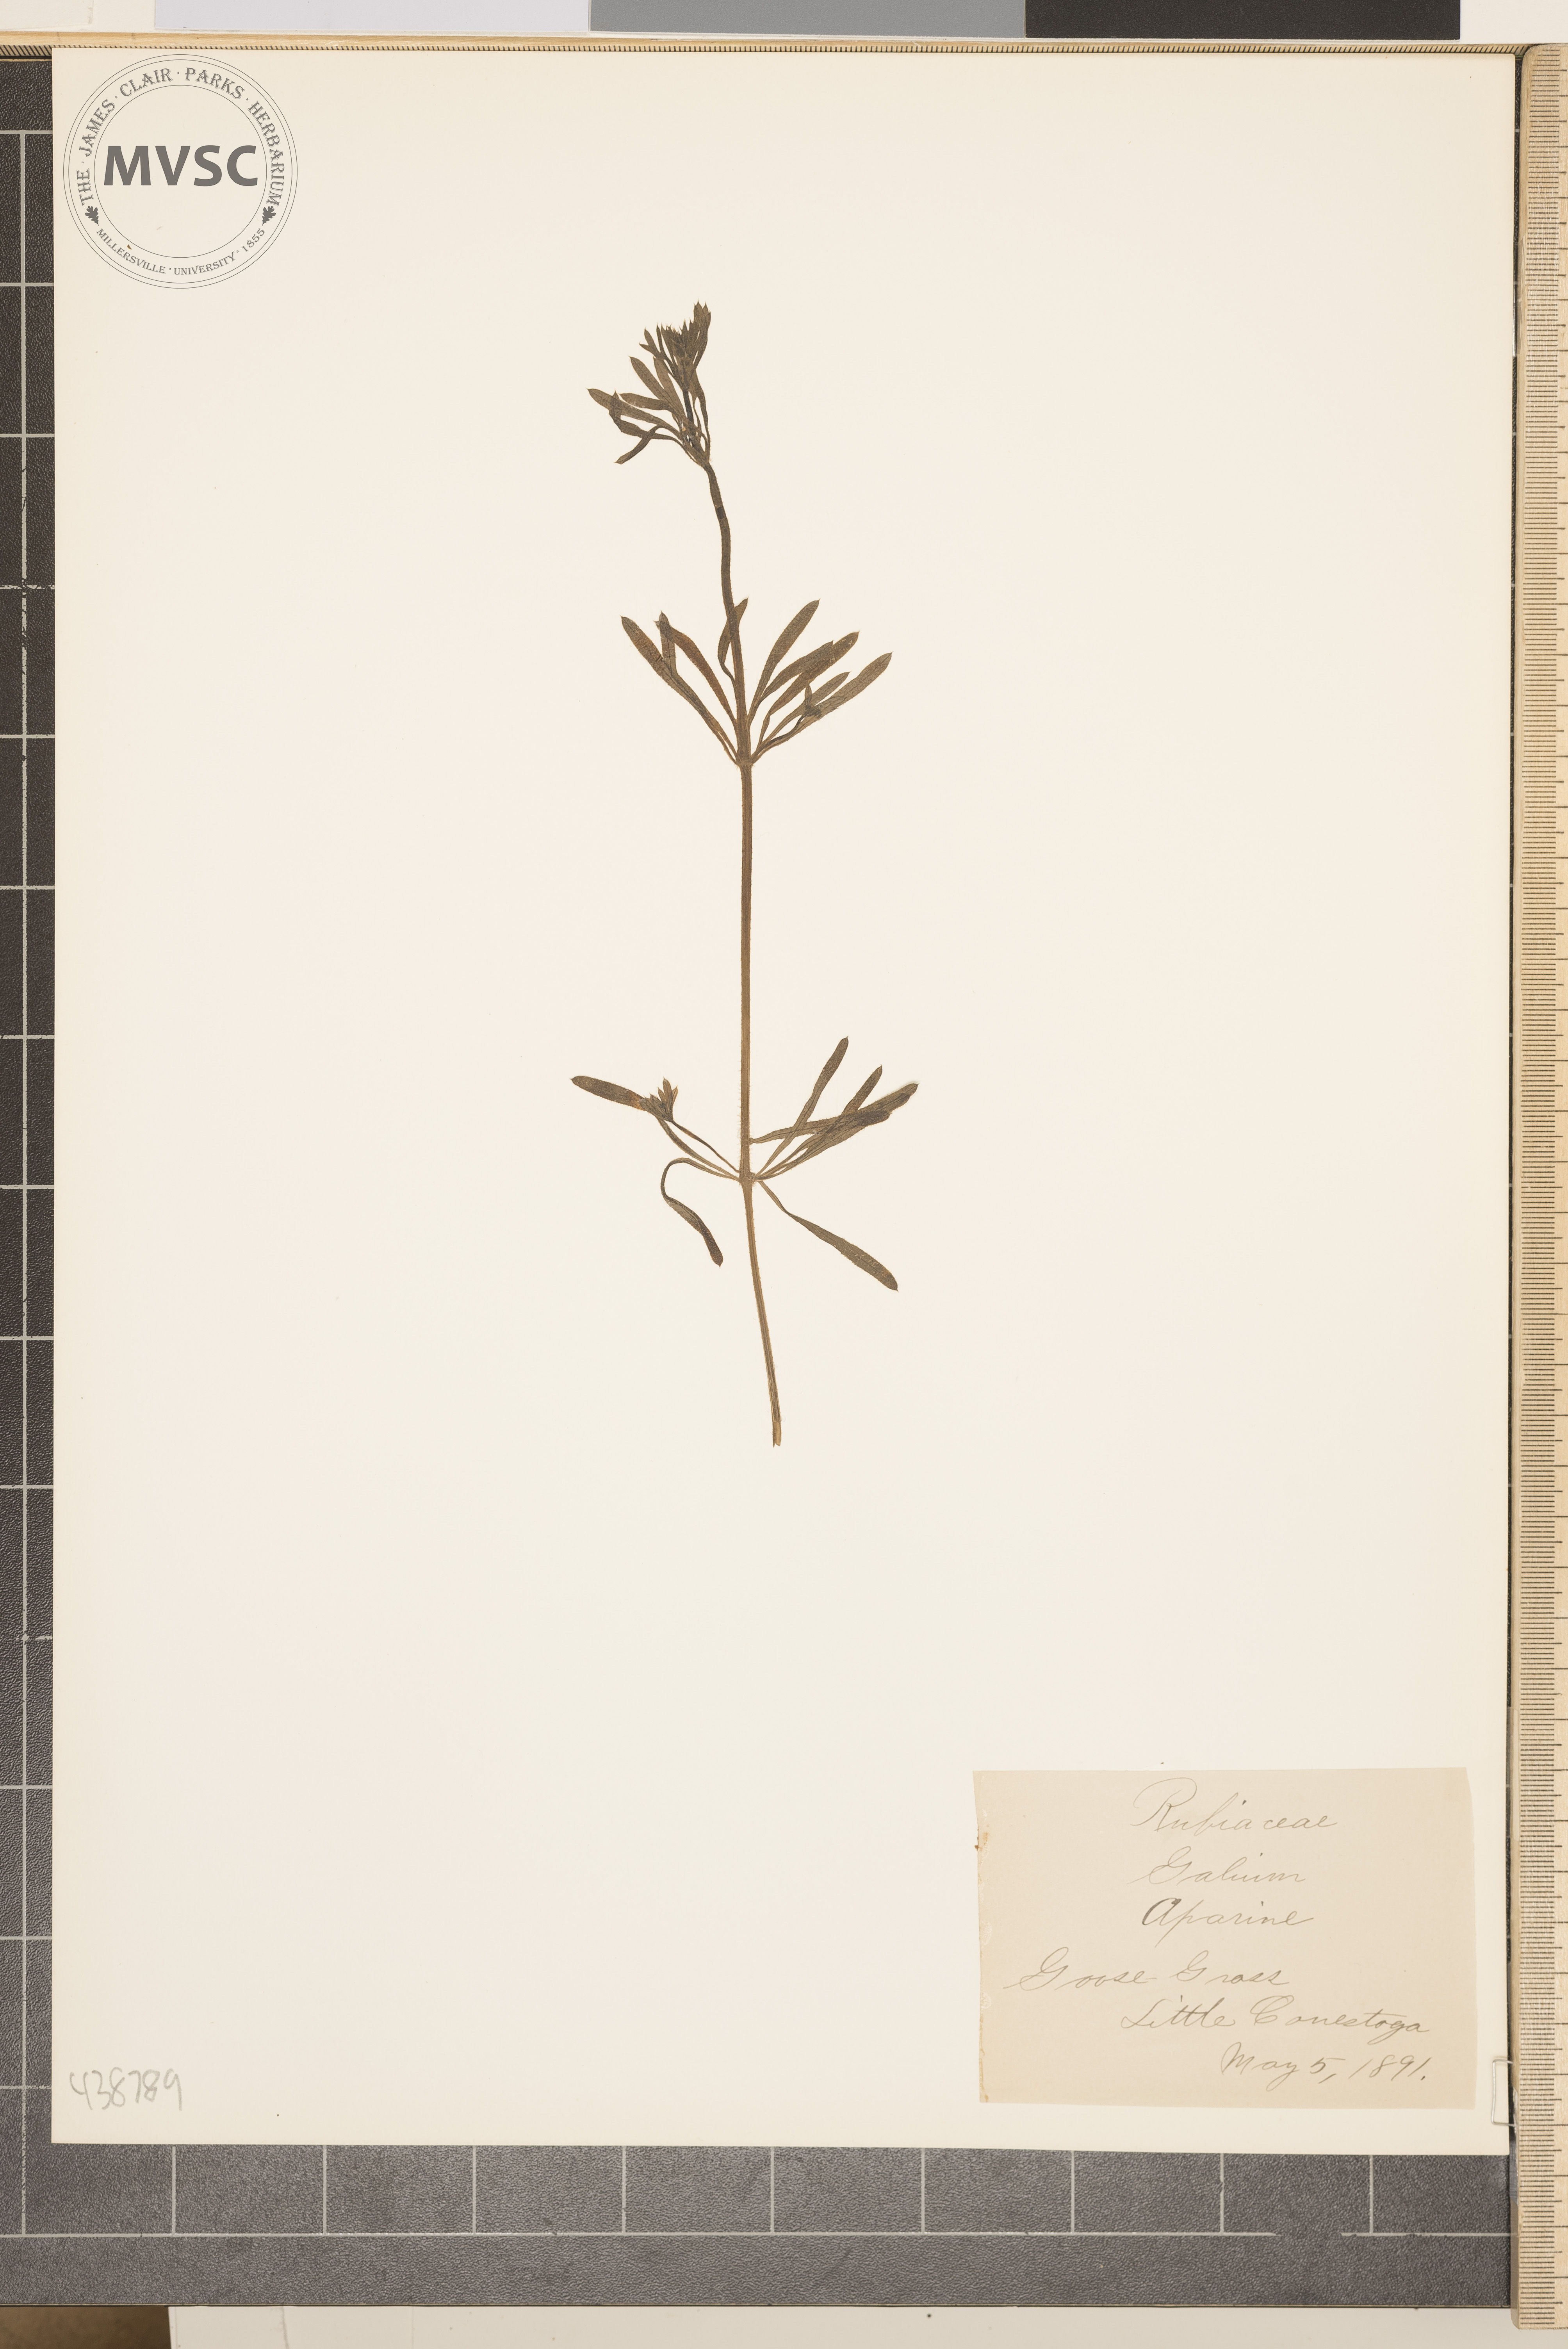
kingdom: Plantae
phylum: Tracheophyta
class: Magnoliopsida
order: Gentianales
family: Rubiaceae
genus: Galium
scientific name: Galium aparine
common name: Goose grass
